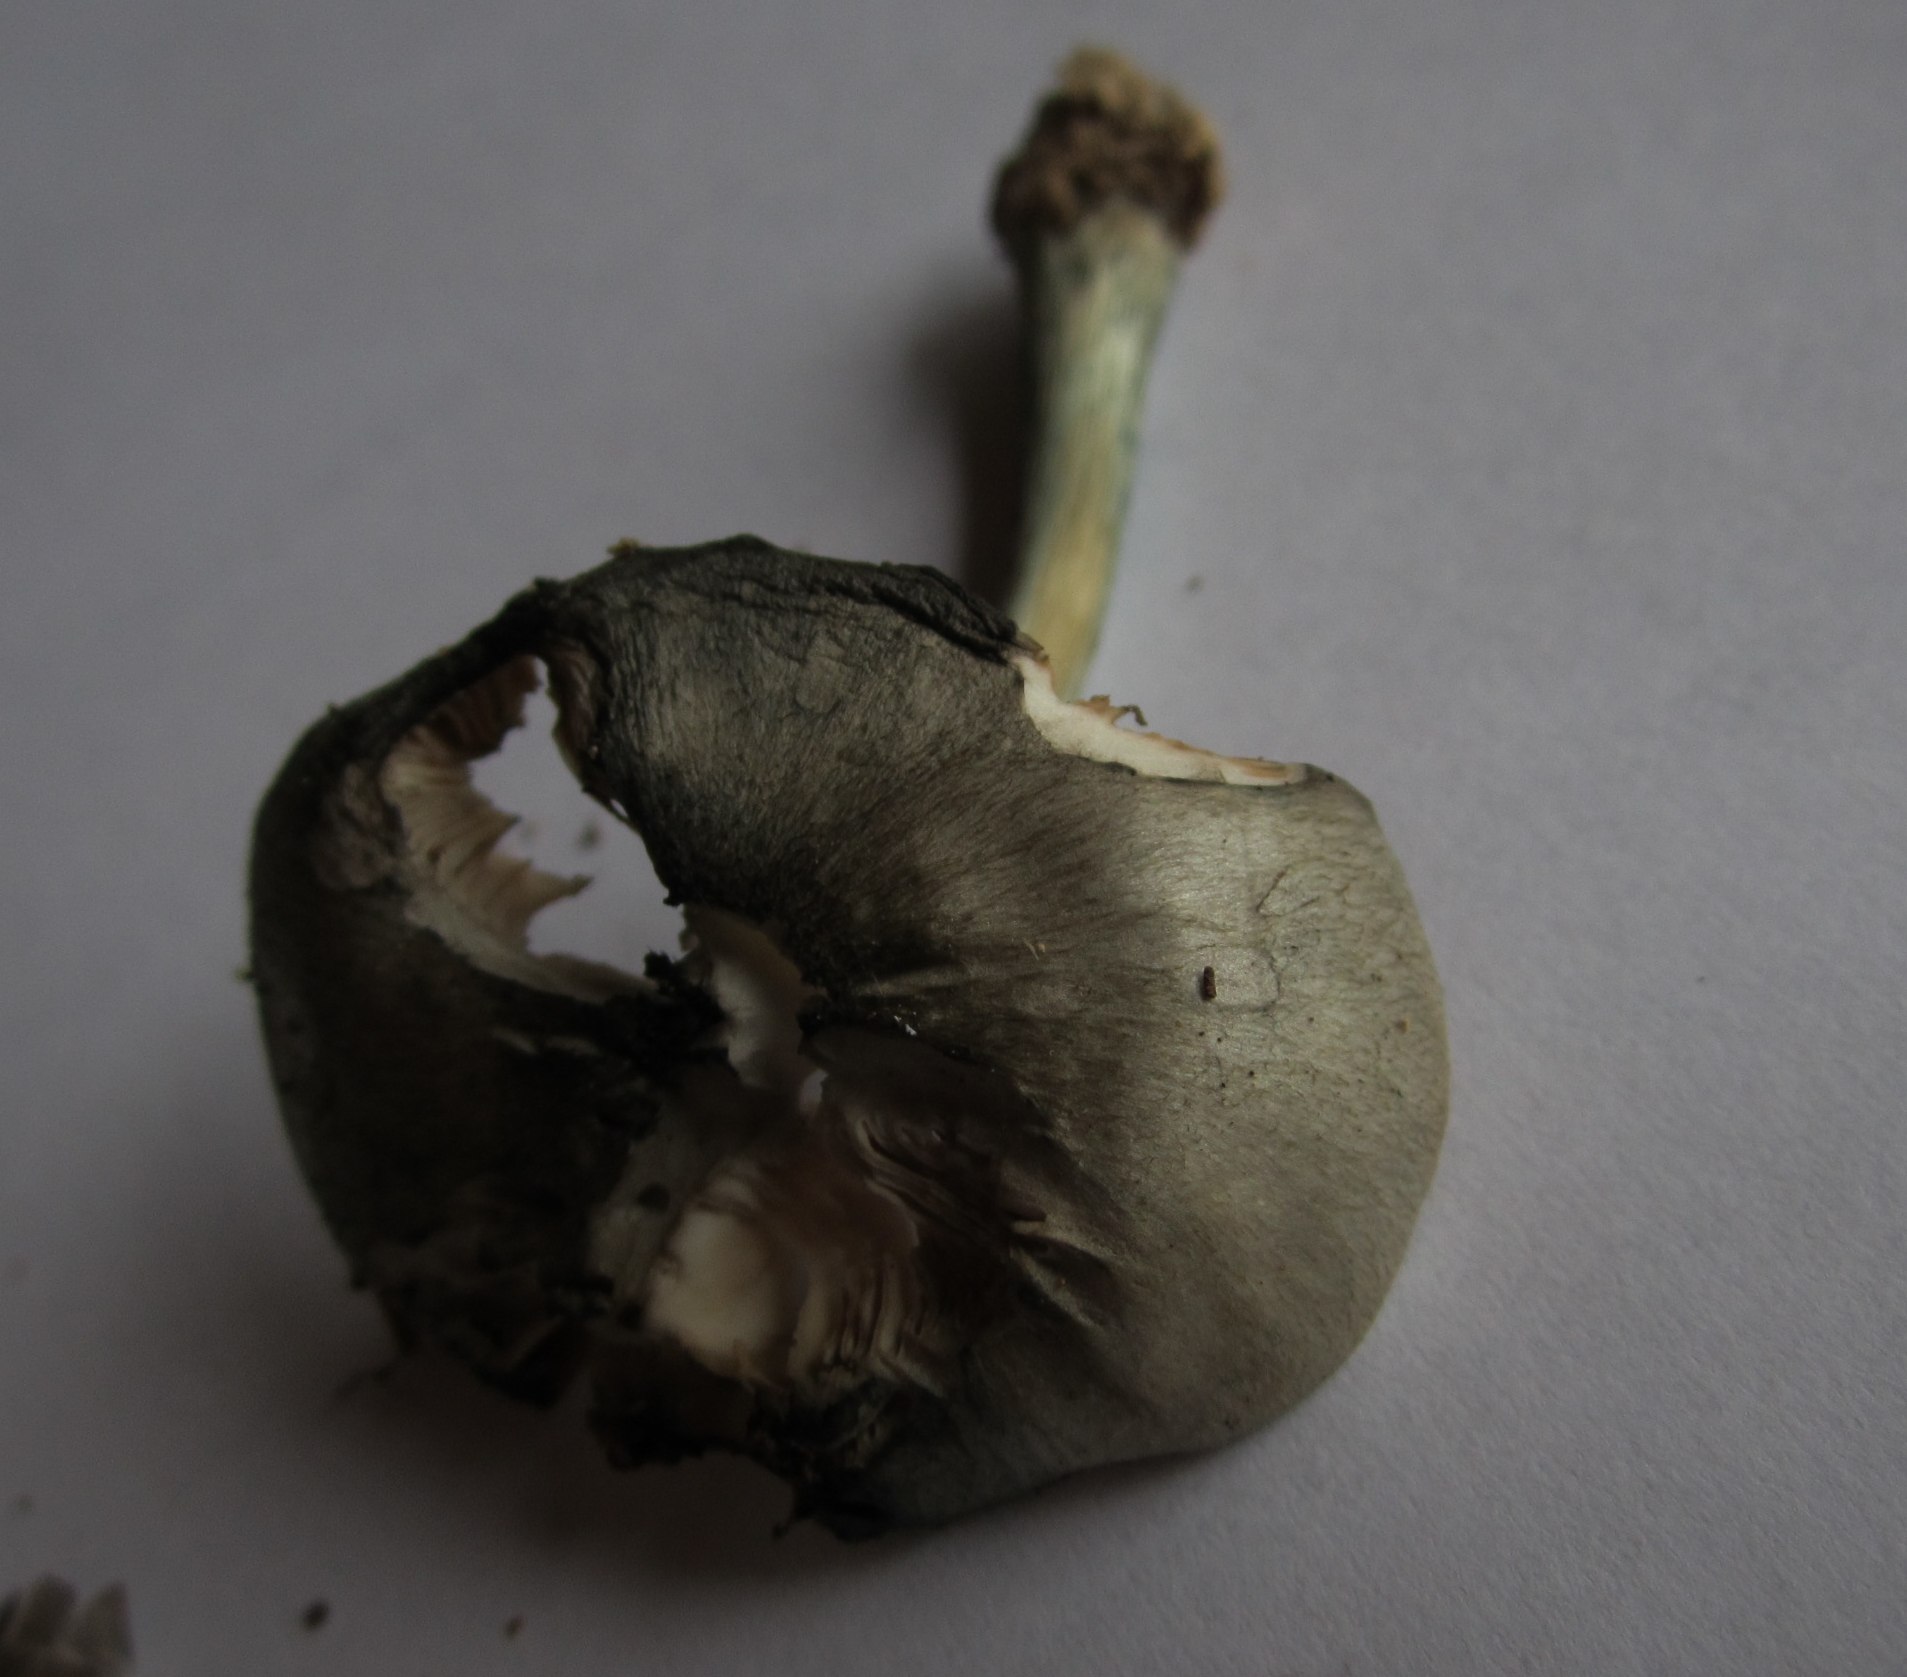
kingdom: Fungi
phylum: Basidiomycota
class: Agaricomycetes
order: Agaricales
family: Pluteaceae
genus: Pluteus
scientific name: Pluteus salicinus
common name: stiv skærmhat
